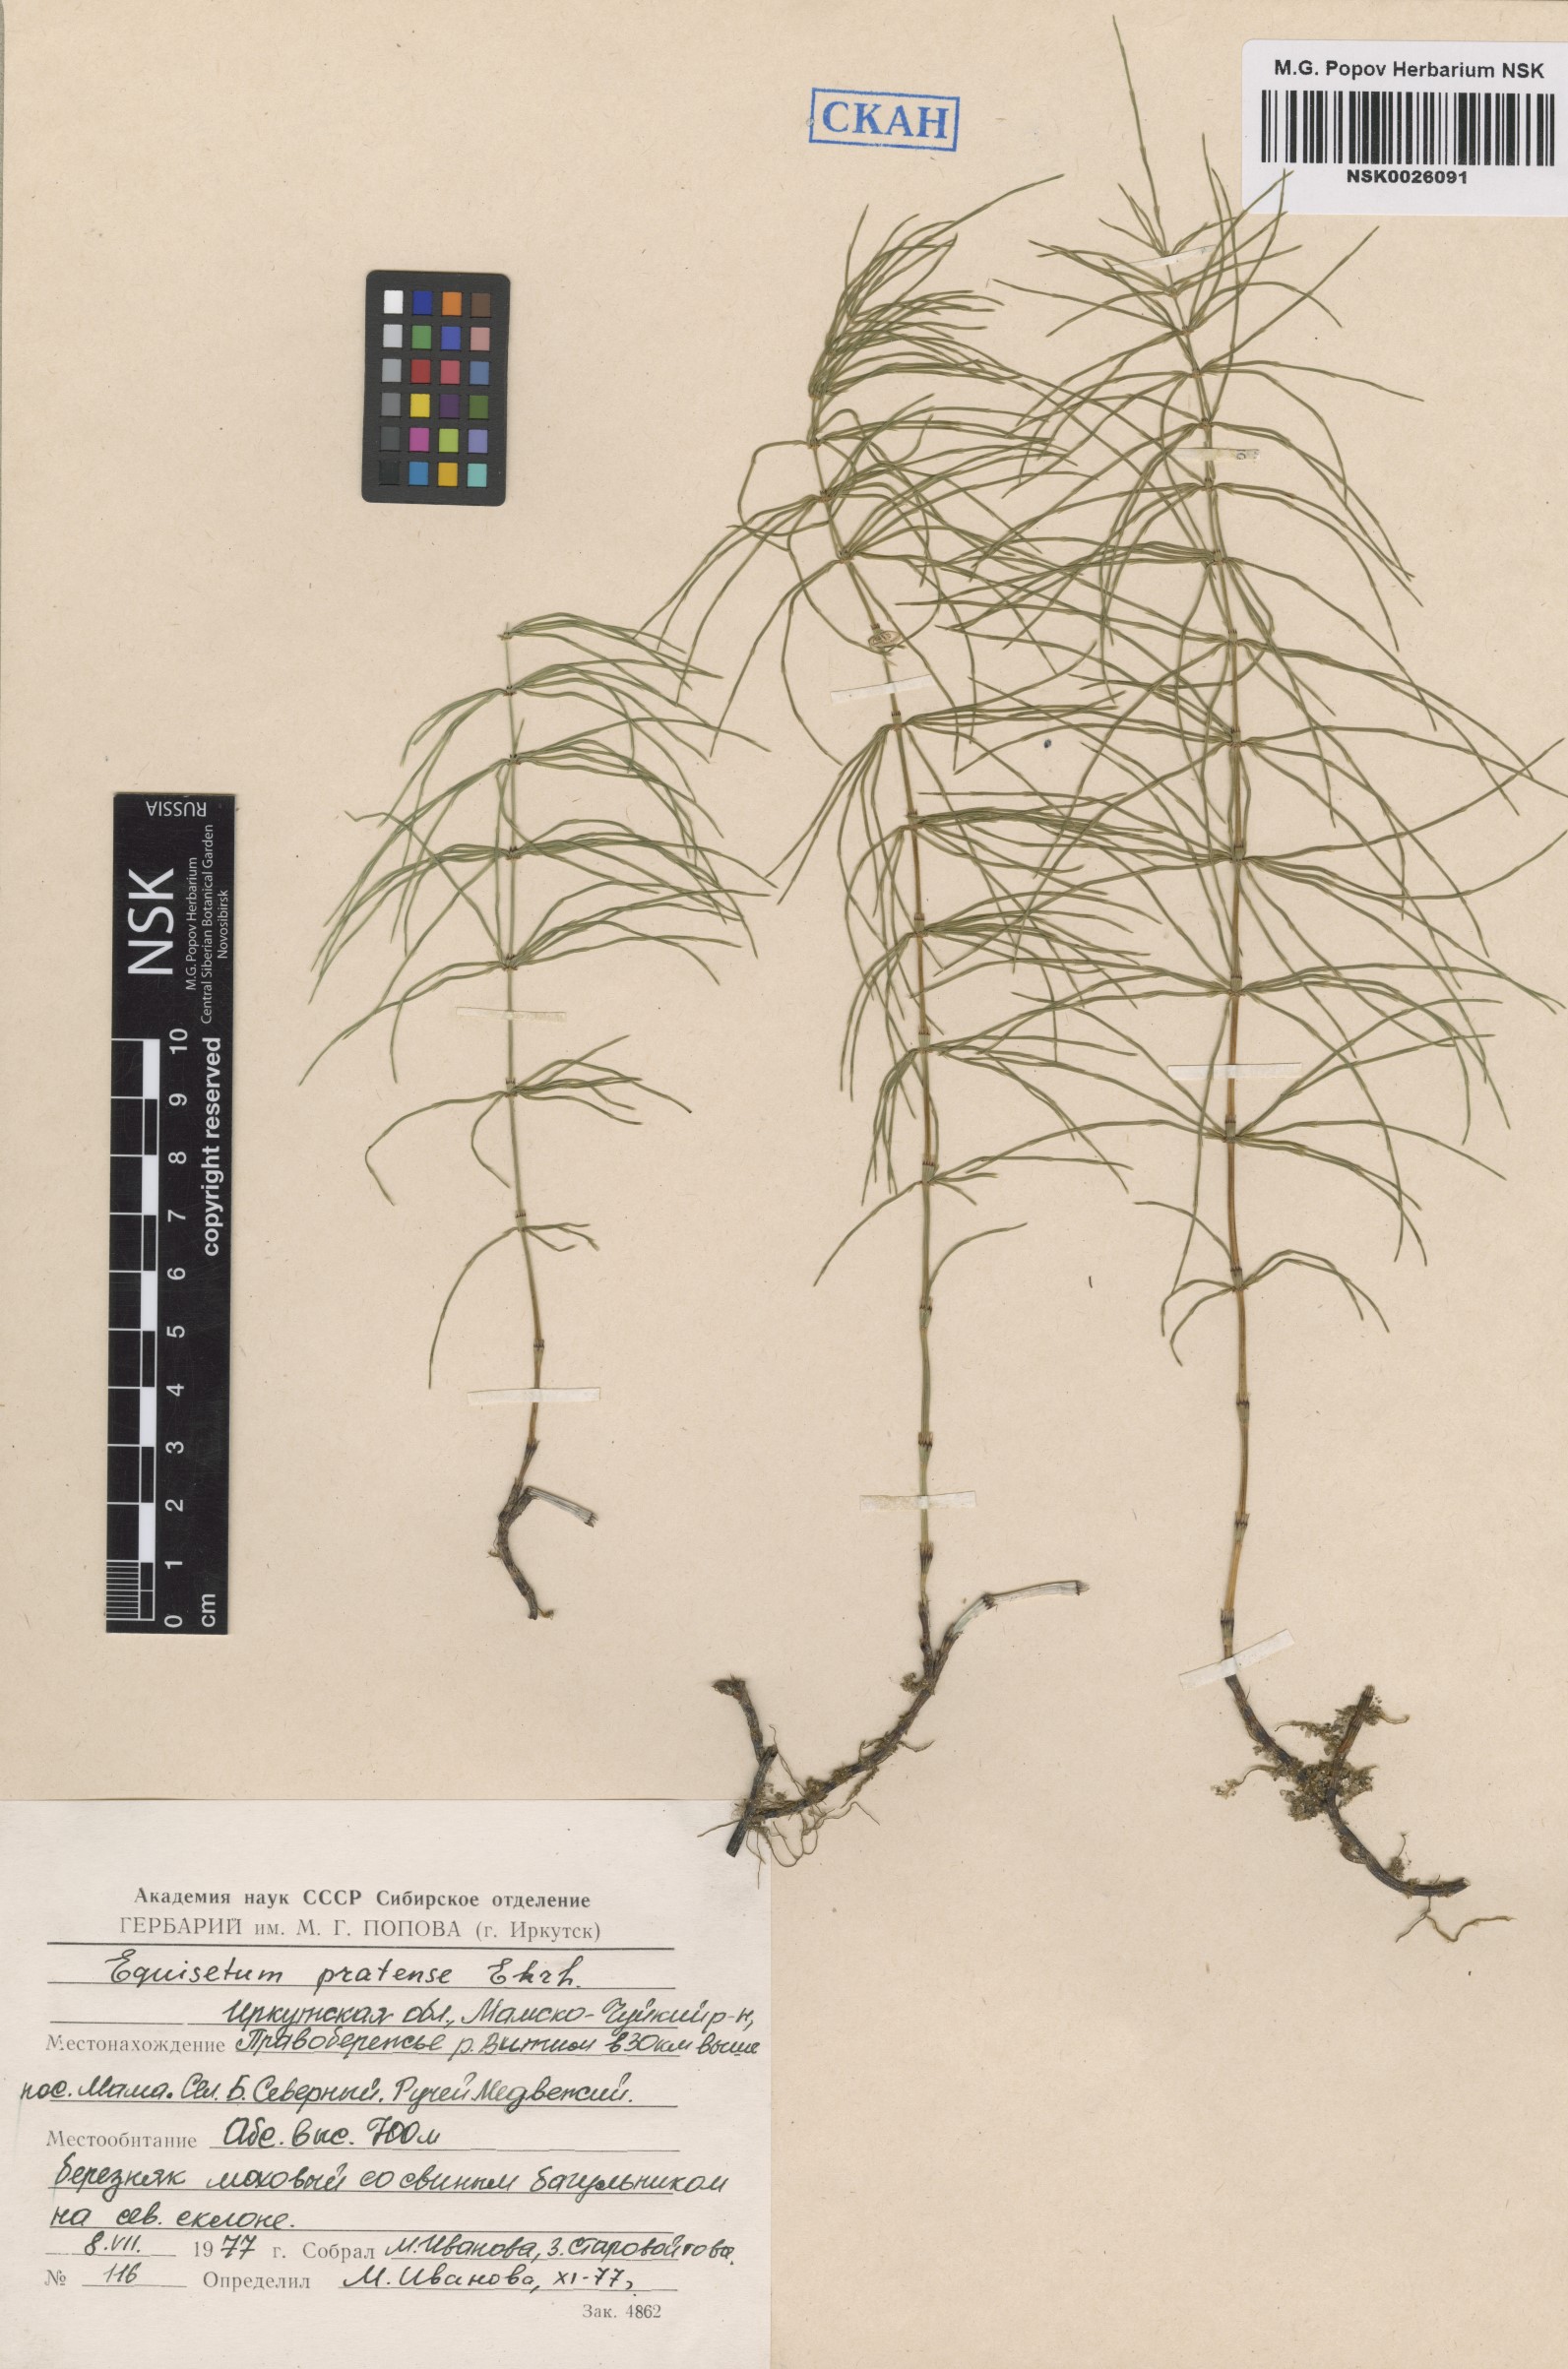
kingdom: Plantae
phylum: Tracheophyta
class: Polypodiopsida
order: Equisetales
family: Equisetaceae
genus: Equisetum
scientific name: Equisetum pratense
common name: Meadow horsetail
